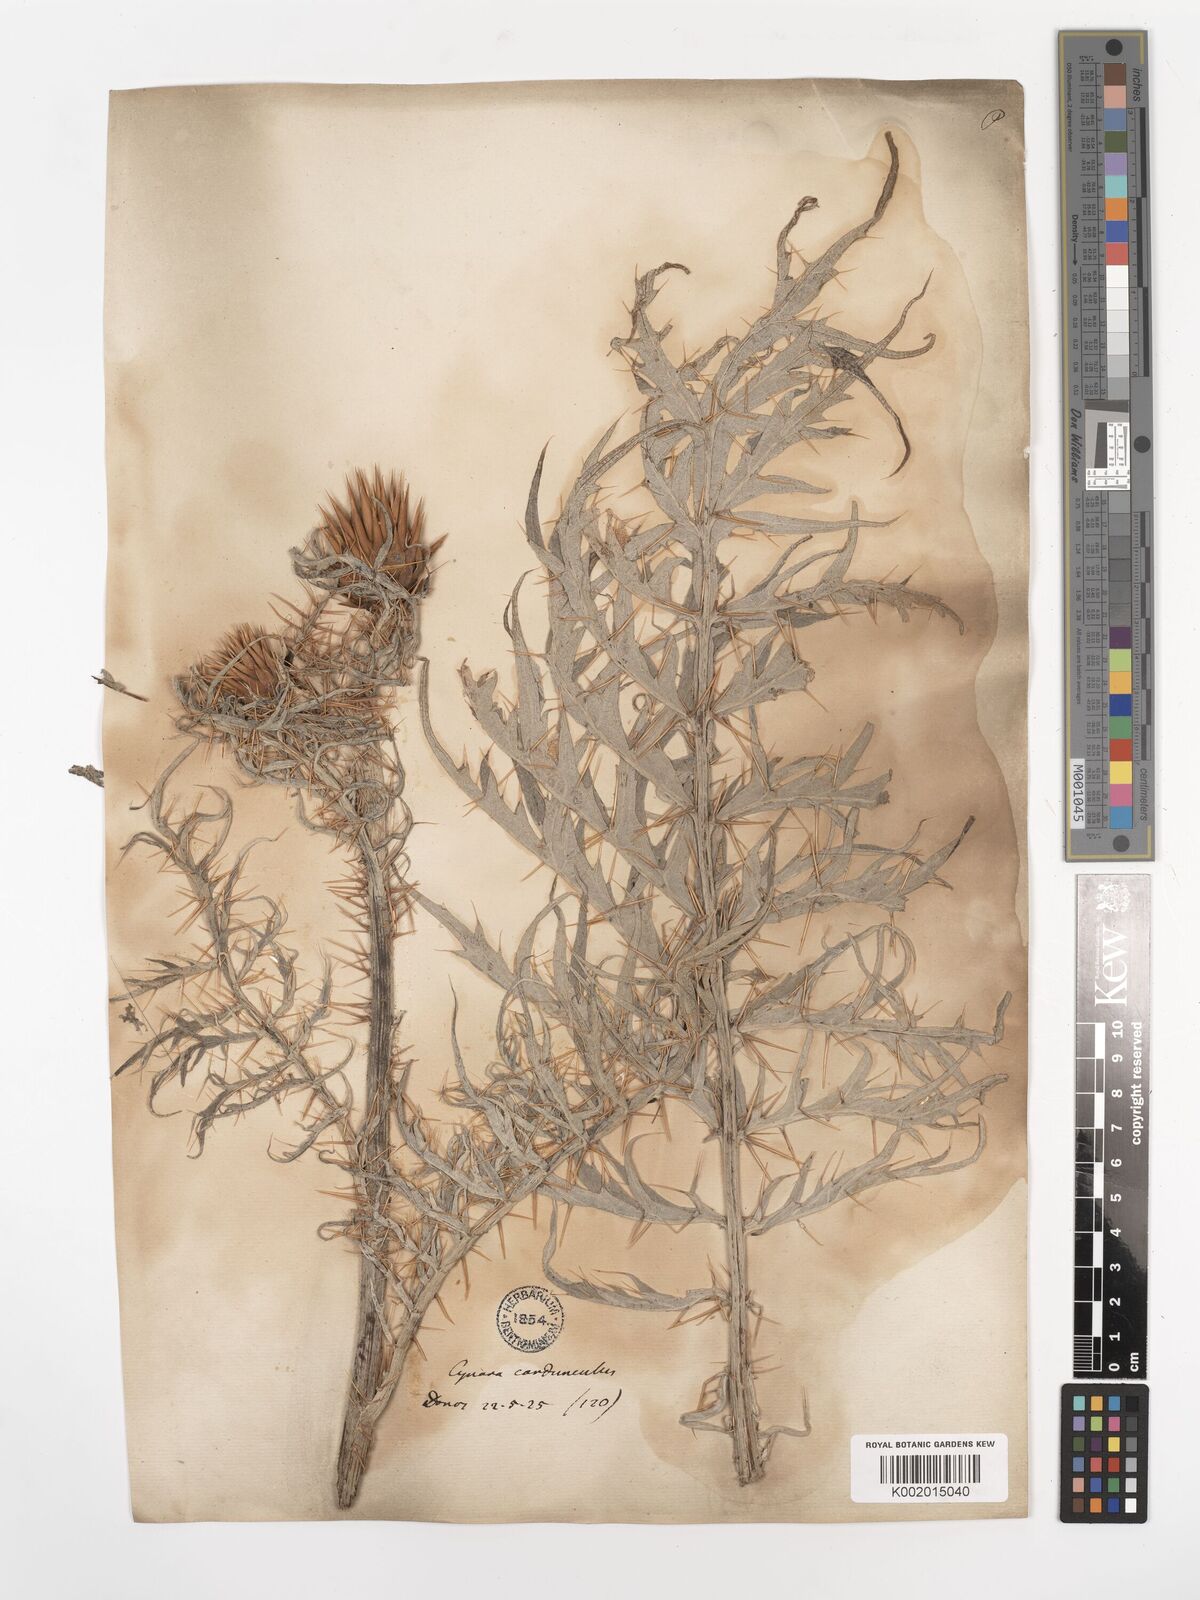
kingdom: Plantae
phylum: Tracheophyta
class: Magnoliopsida
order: Asterales
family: Asteraceae
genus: Cynara
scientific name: Cynara cardunculus
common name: Globe artichoke
